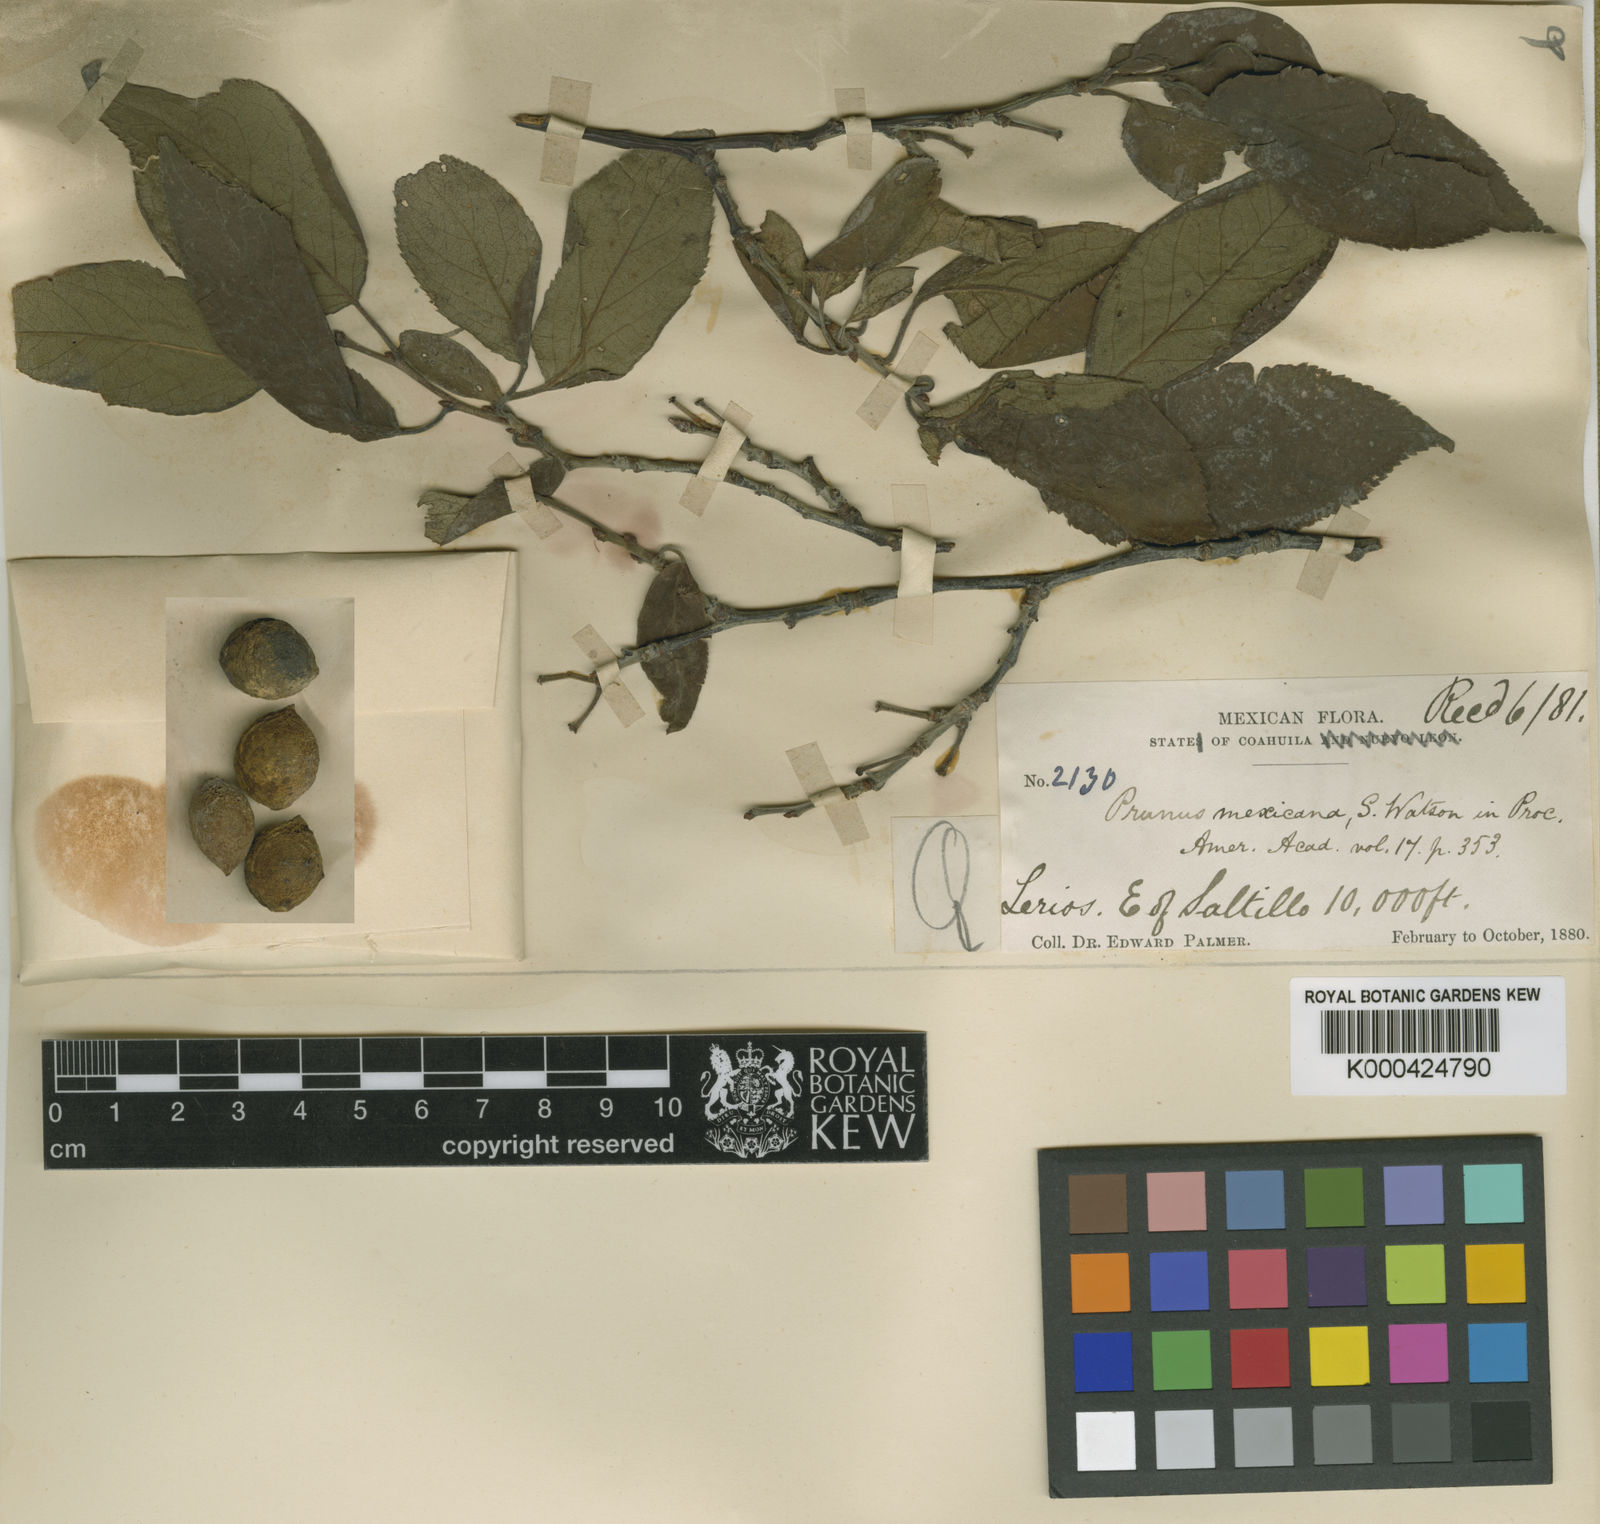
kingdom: Plantae
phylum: Tracheophyta
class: Magnoliopsida
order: Rosales
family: Rosaceae
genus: Prunus
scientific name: Prunus mexicana
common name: Mexican plum
